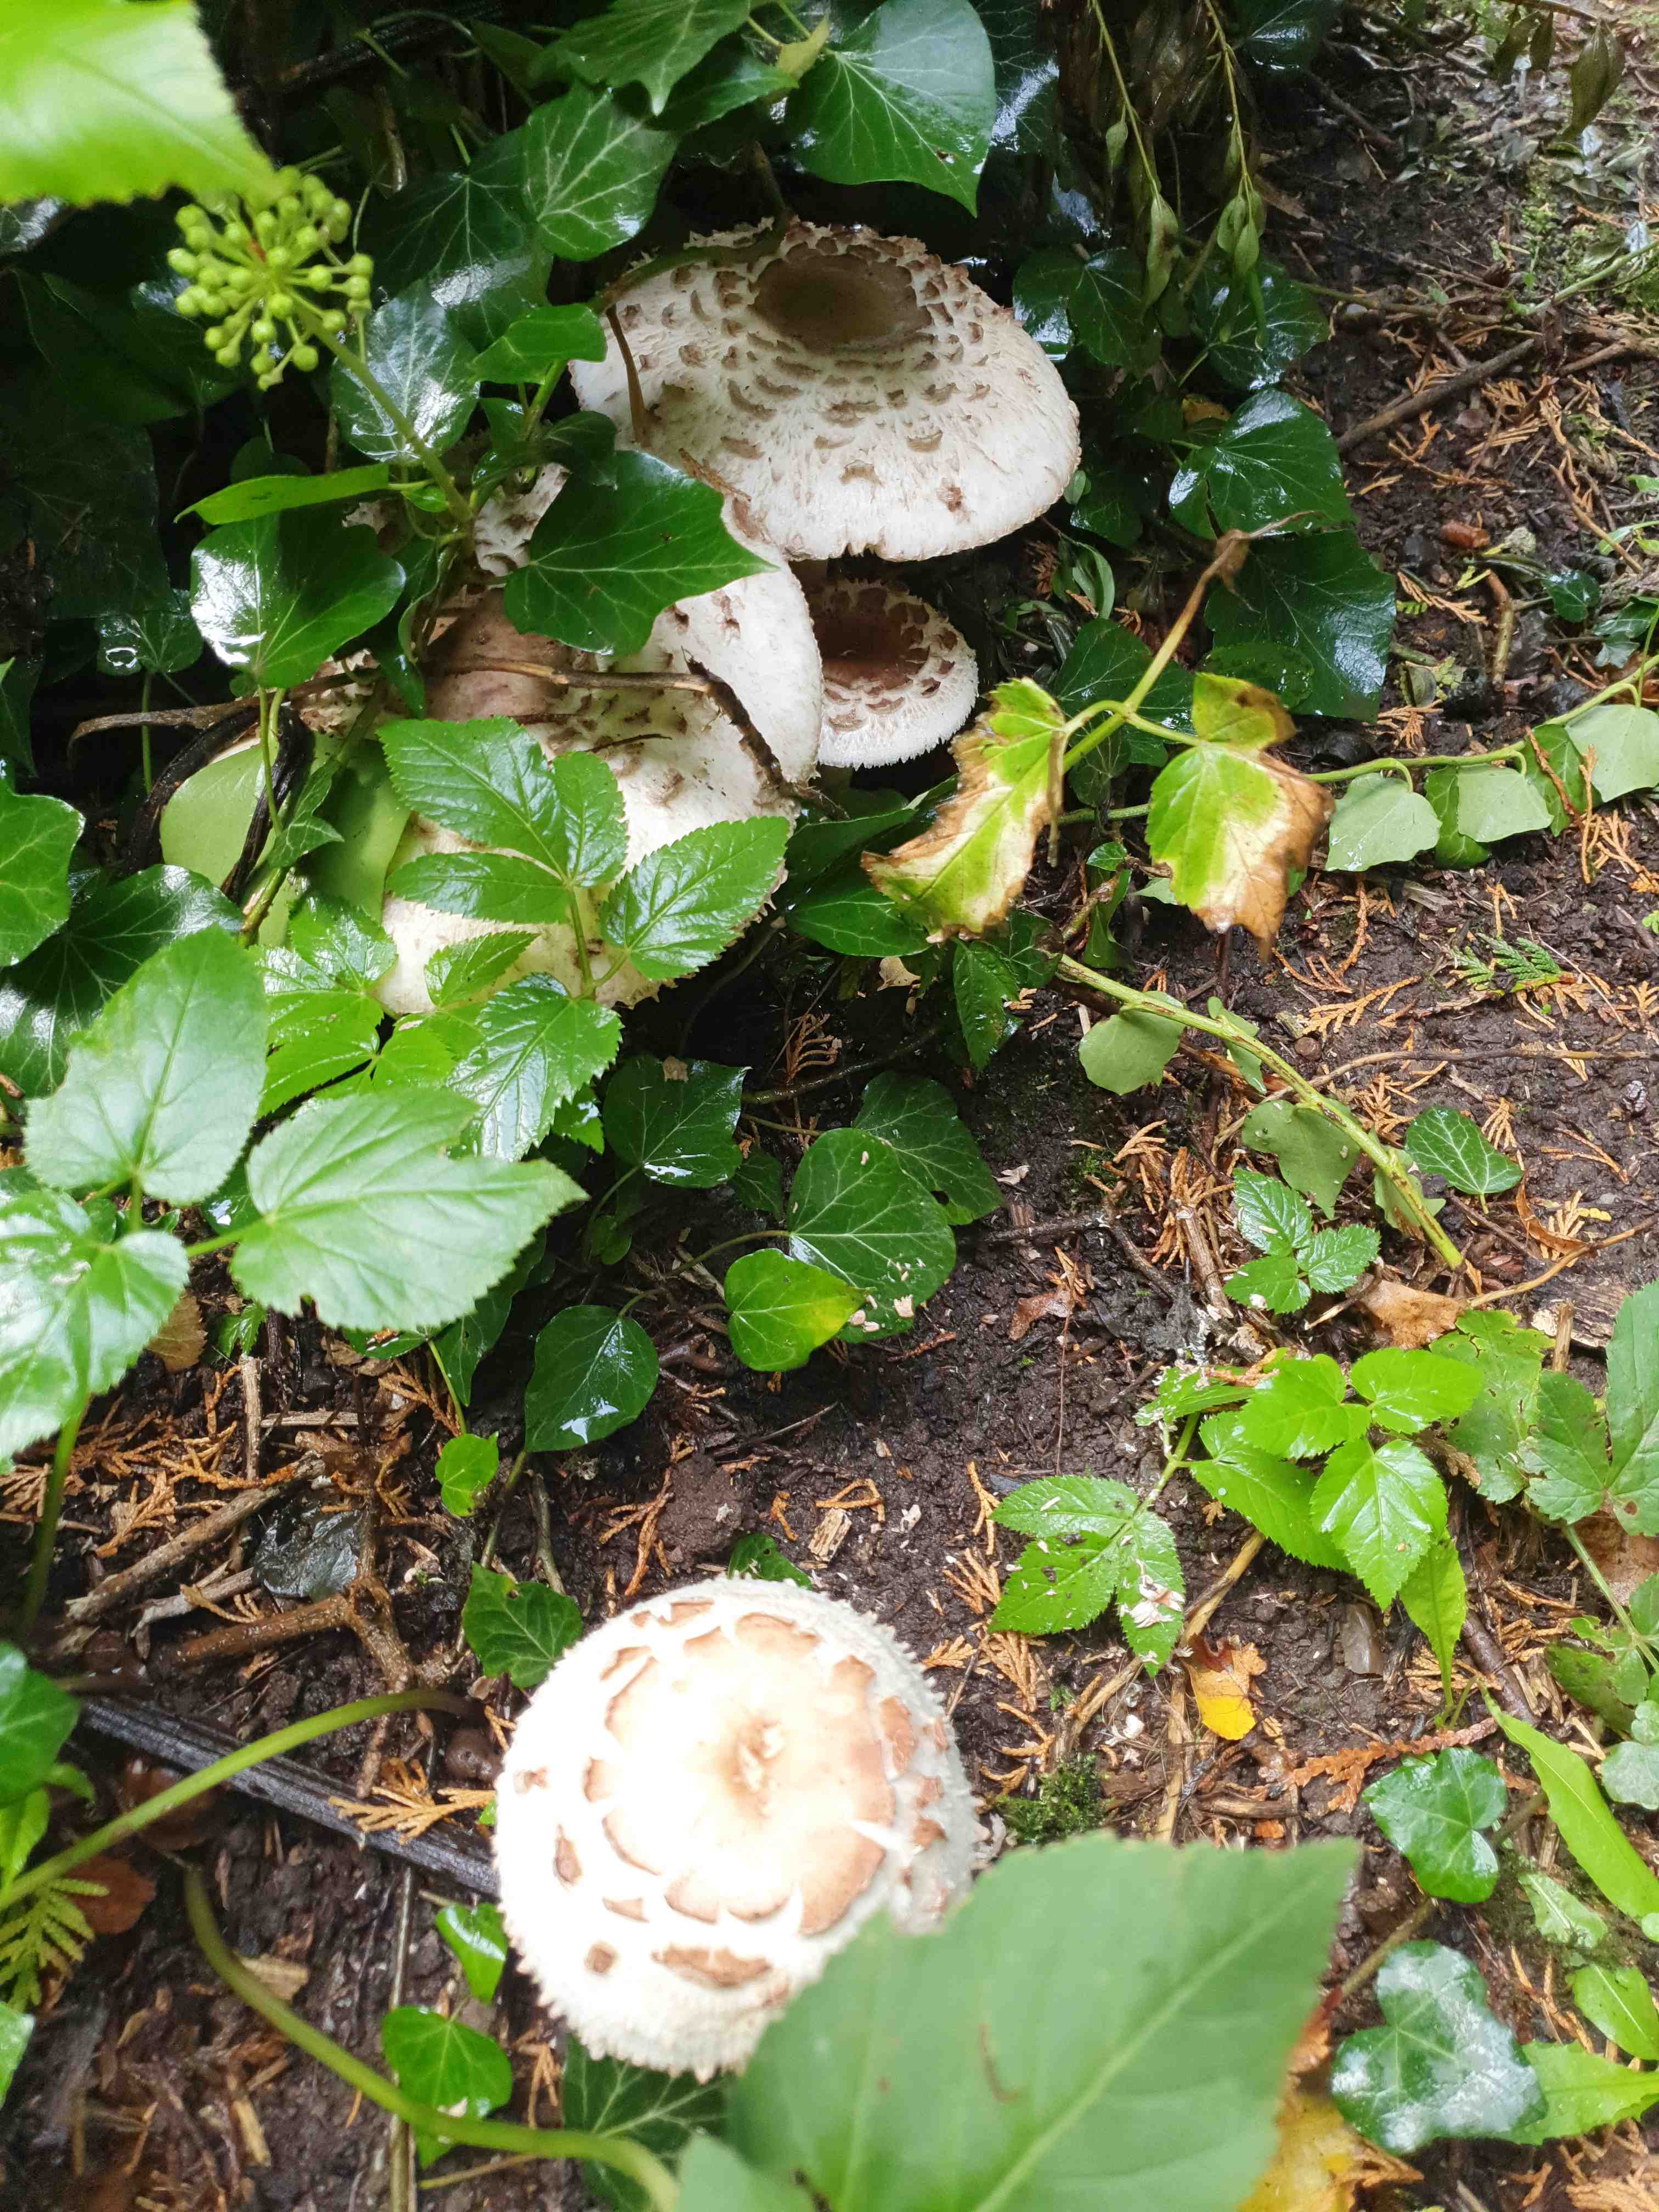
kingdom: Fungi
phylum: Basidiomycota
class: Agaricomycetes
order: Agaricales
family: Agaricaceae
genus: Chlorophyllum
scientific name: Chlorophyllum rhacodes
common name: ægte rabarberhat
